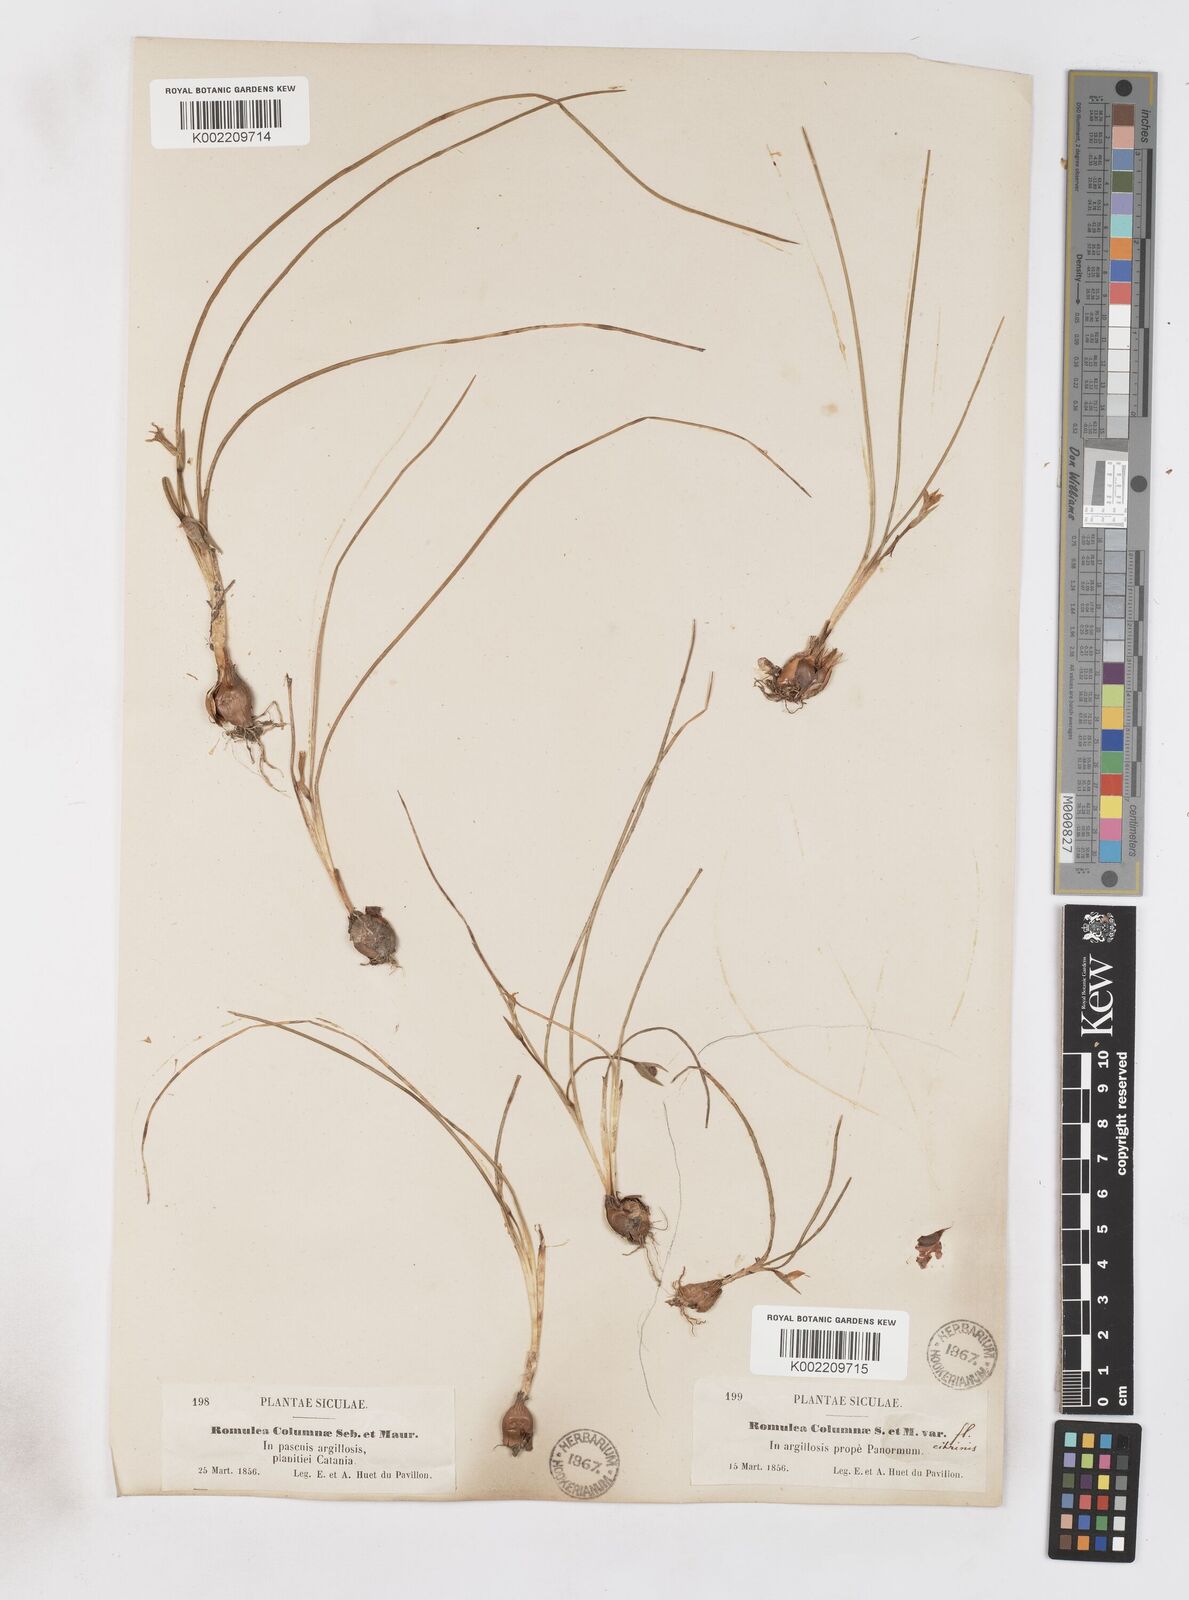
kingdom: Plantae
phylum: Tracheophyta
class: Liliopsida
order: Asparagales
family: Iridaceae
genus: Romulea
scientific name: Romulea ramiflora
